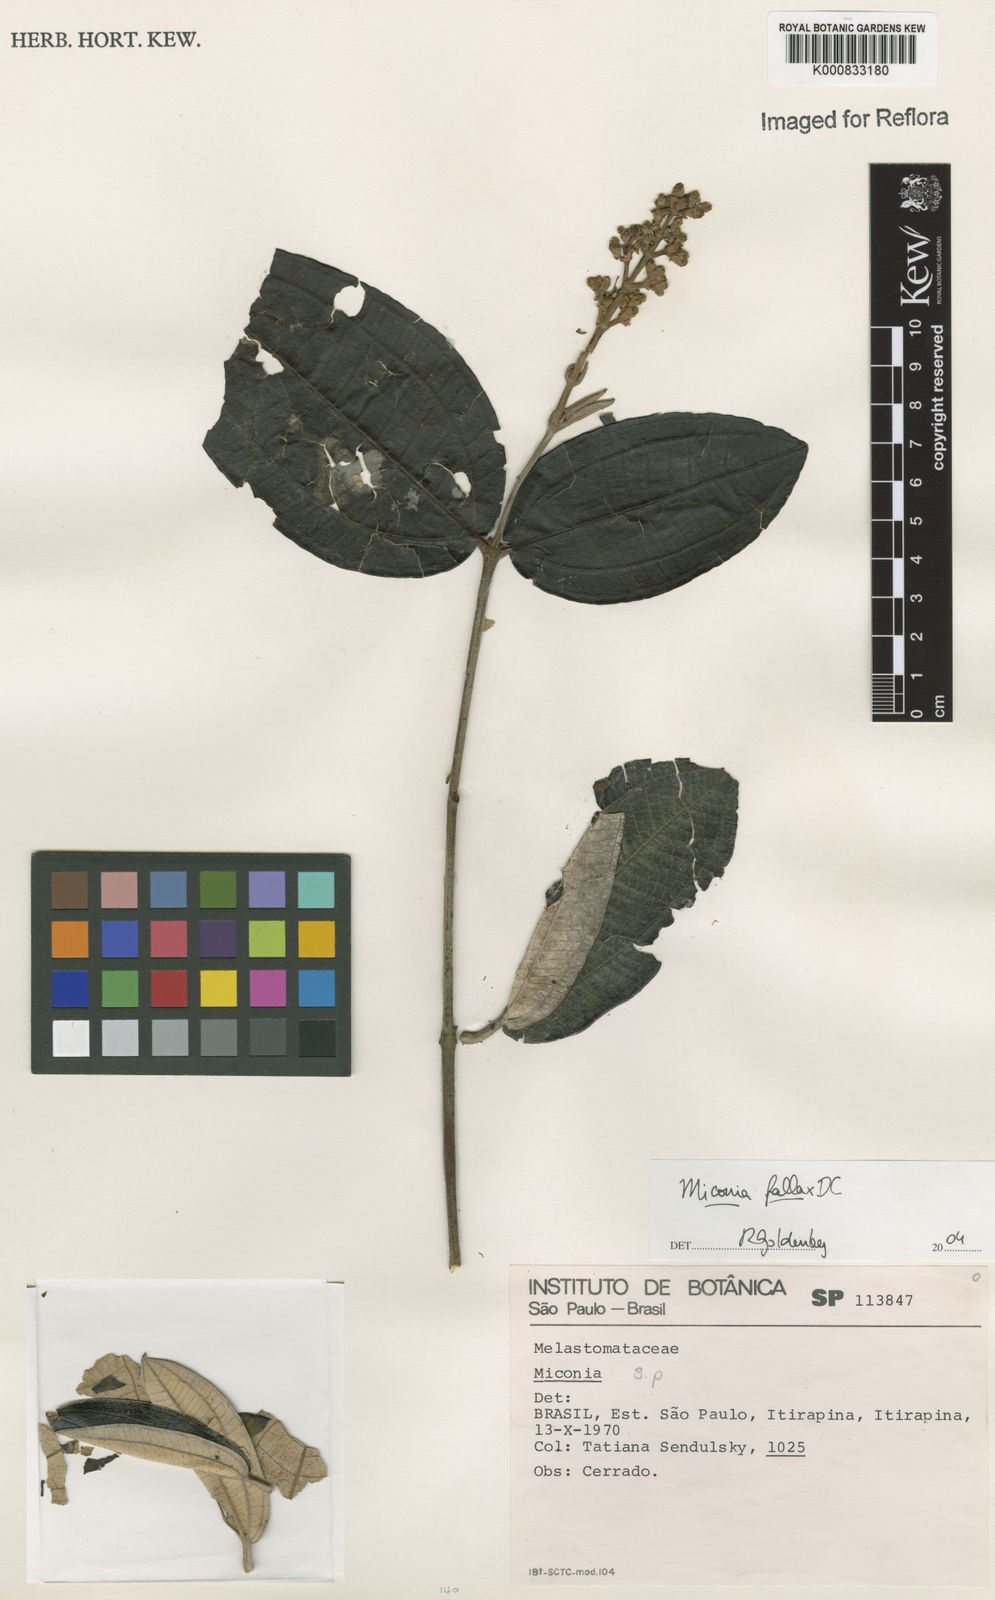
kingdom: Plantae
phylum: Tracheophyta
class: Magnoliopsida
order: Myrtales
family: Melastomataceae
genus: Miconia
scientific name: Miconia fallax
